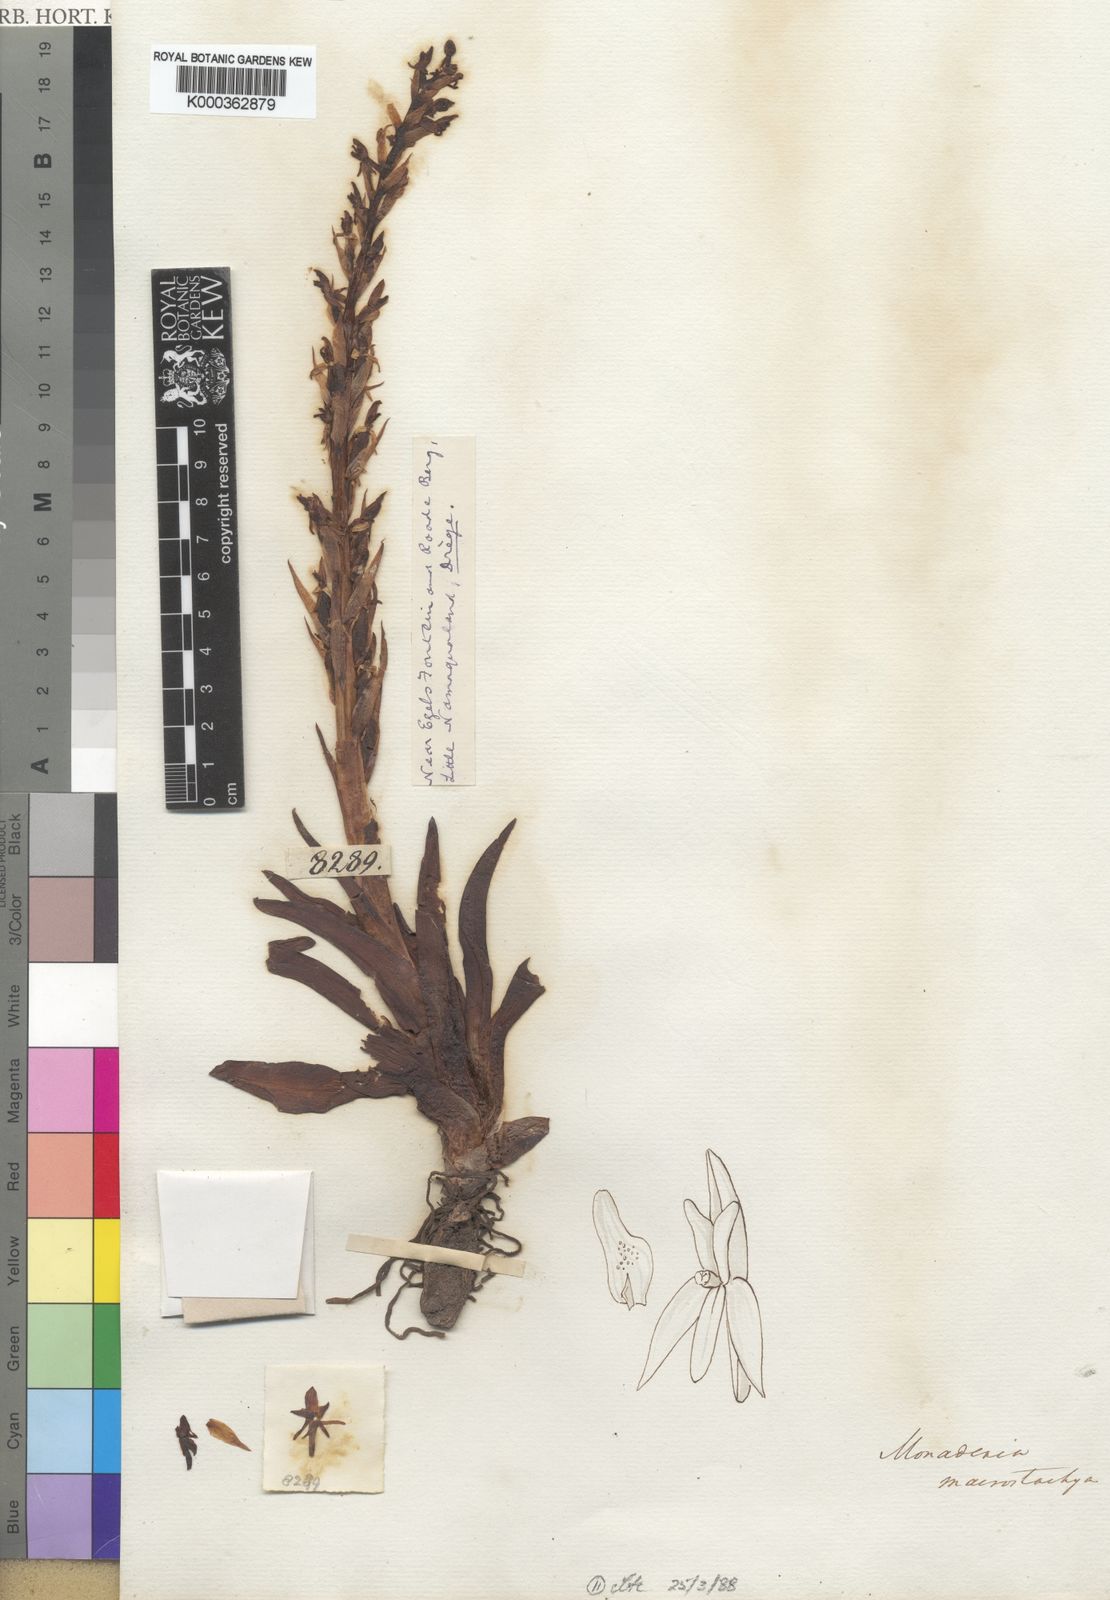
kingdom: Plantae
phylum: Tracheophyta
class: Liliopsida
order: Asparagales
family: Orchidaceae
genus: Disa
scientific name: Disa macrostachya
